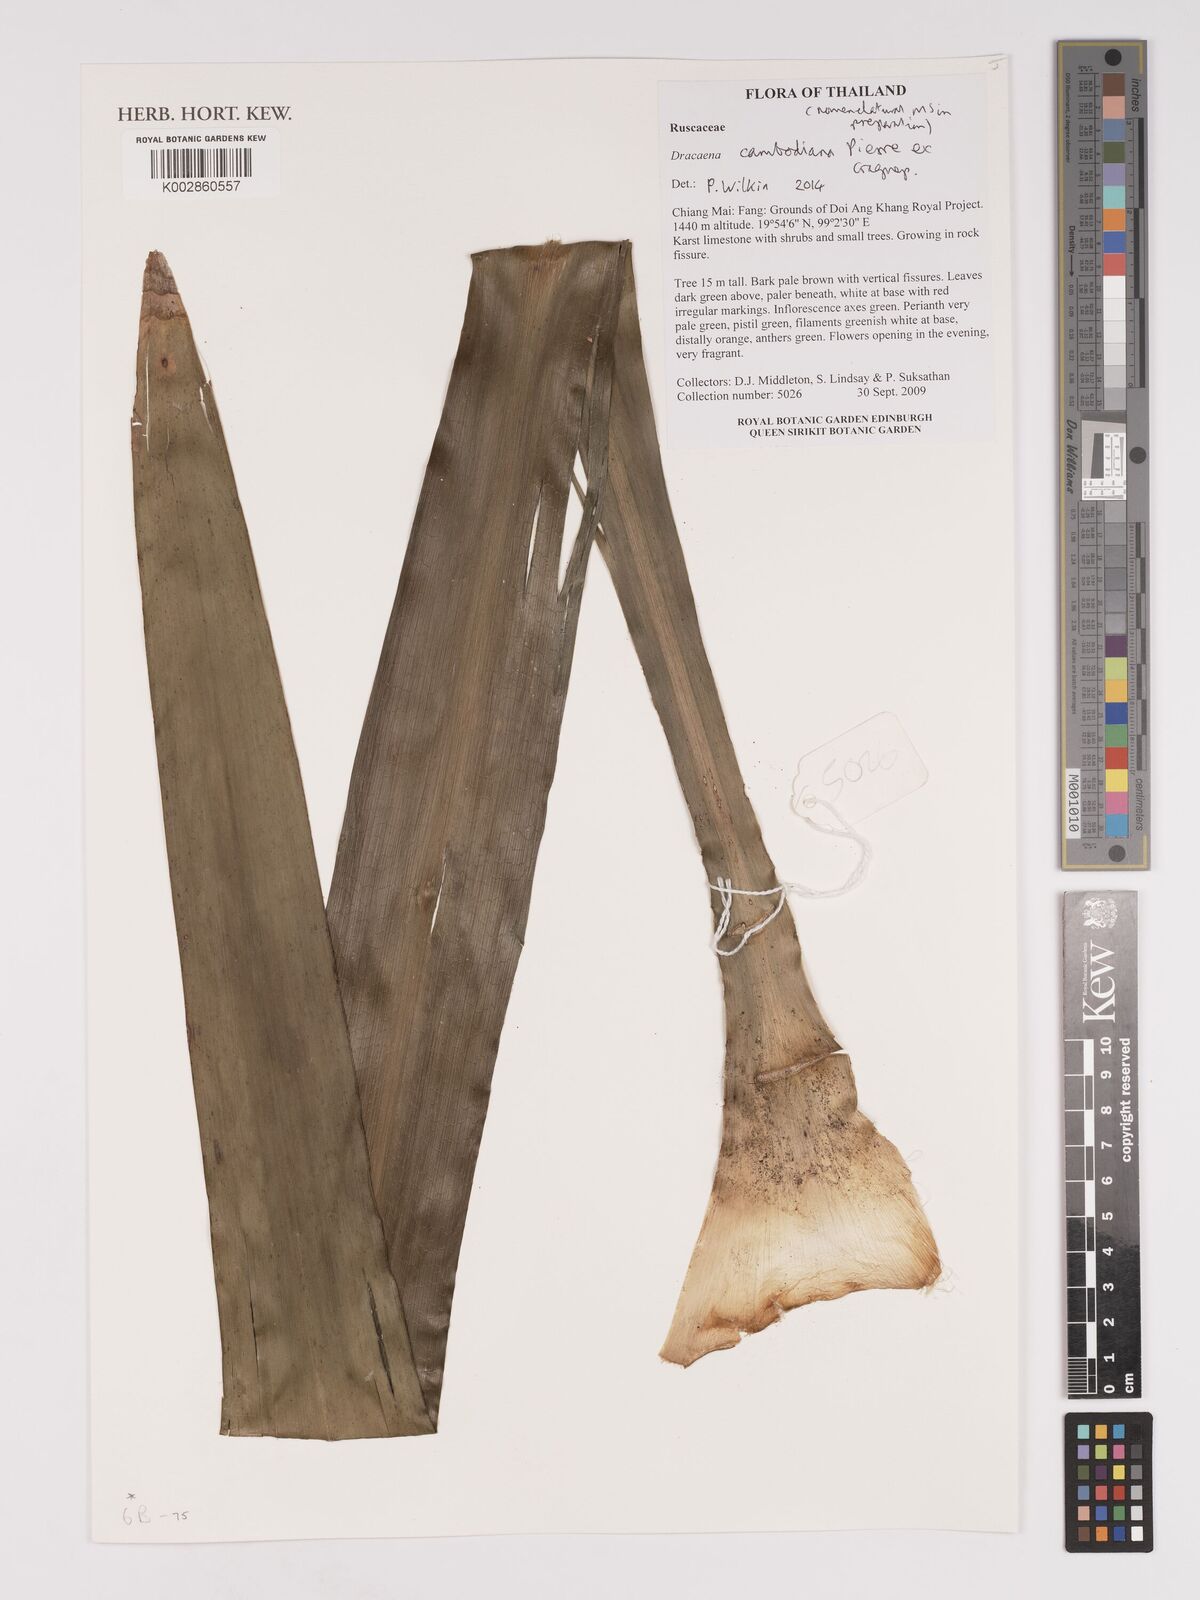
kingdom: Plantae
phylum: Tracheophyta
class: Liliopsida
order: Asparagales
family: Asparagaceae
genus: Dracaena
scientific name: Dracaena cambodiana
